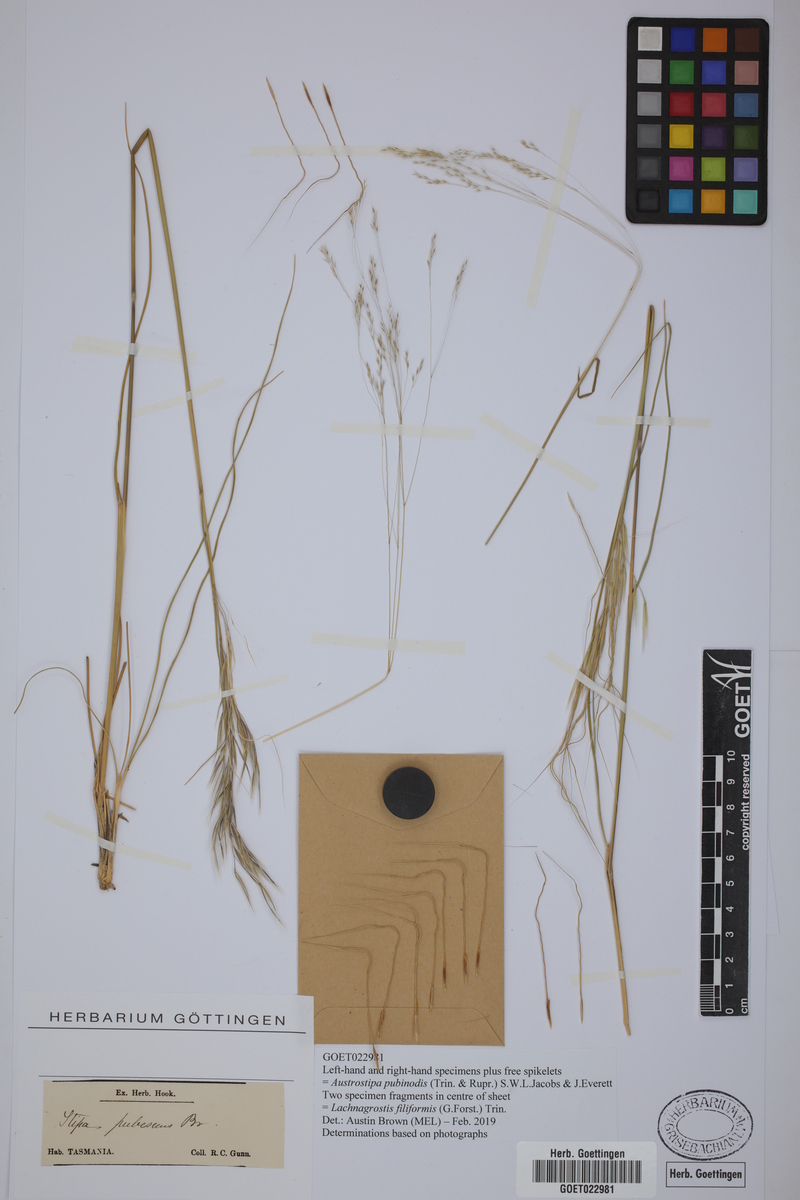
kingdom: Plantae
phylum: Tracheophyta
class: Liliopsida
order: Poales
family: Poaceae
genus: Austrostipa
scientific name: Austrostipa pubinodis
